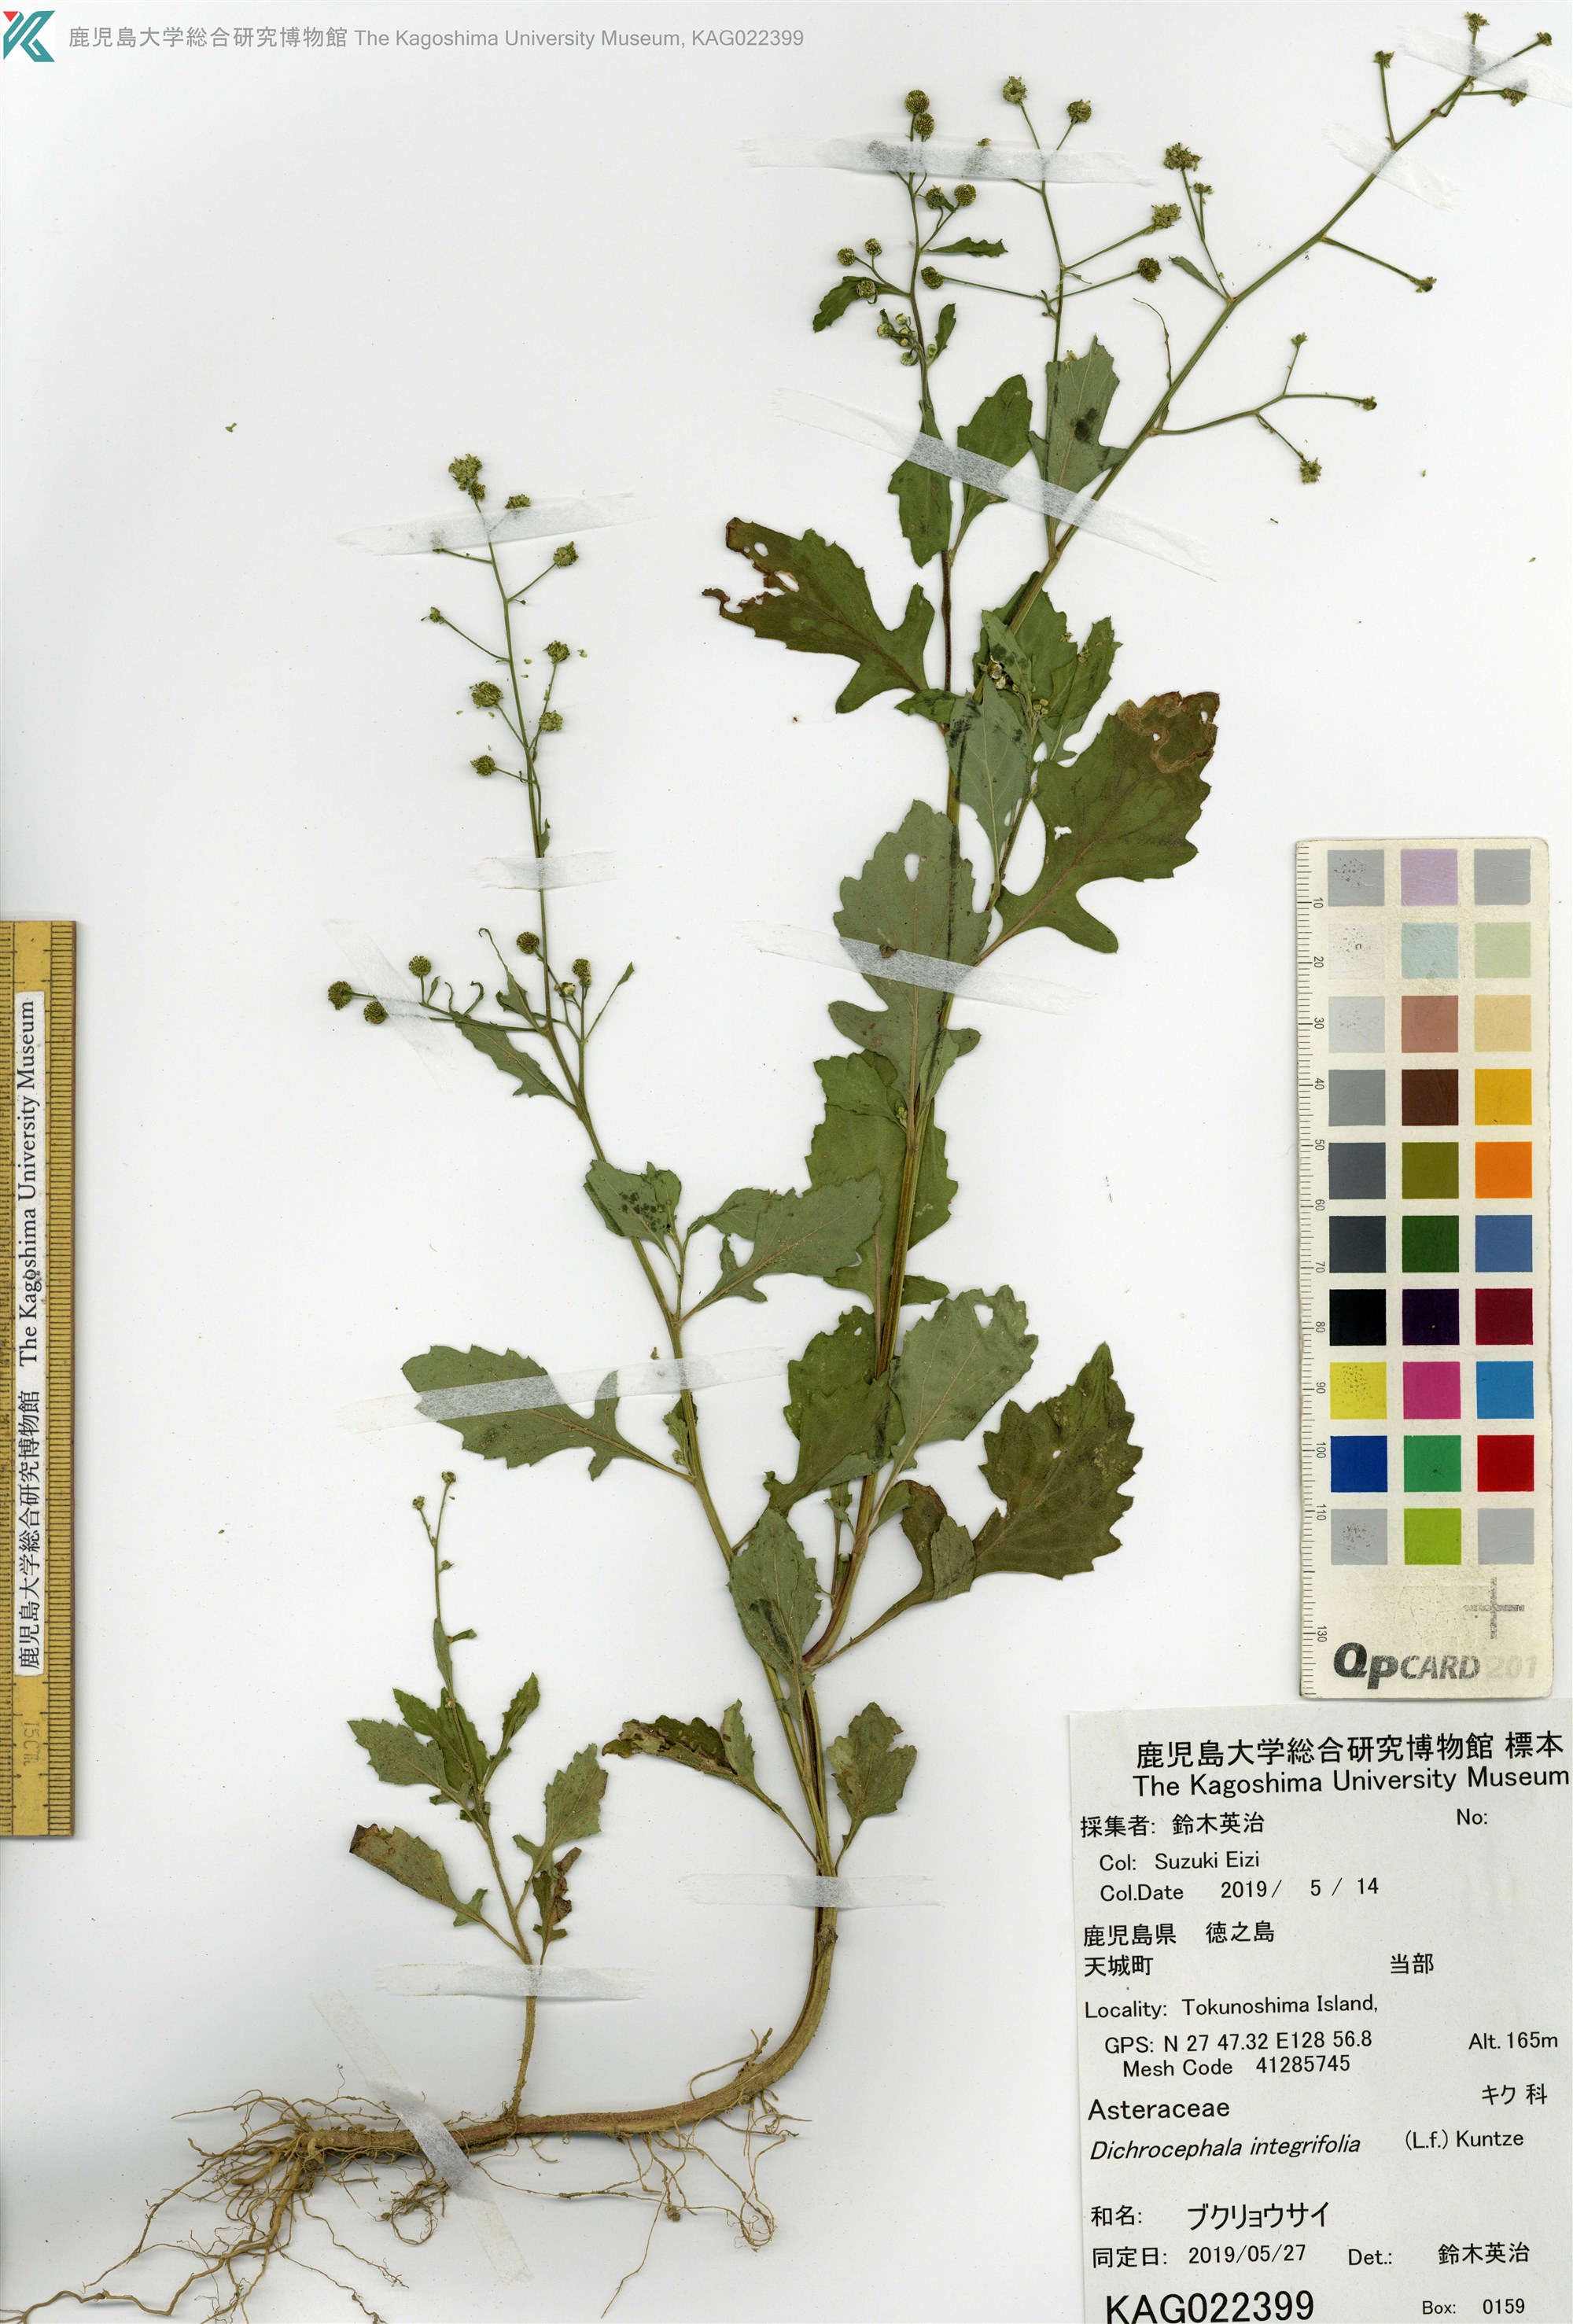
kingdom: Plantae
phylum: Tracheophyta
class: Magnoliopsida
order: Asterales
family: Asteraceae
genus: Dichrocephala
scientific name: Dichrocephala integrifolia
